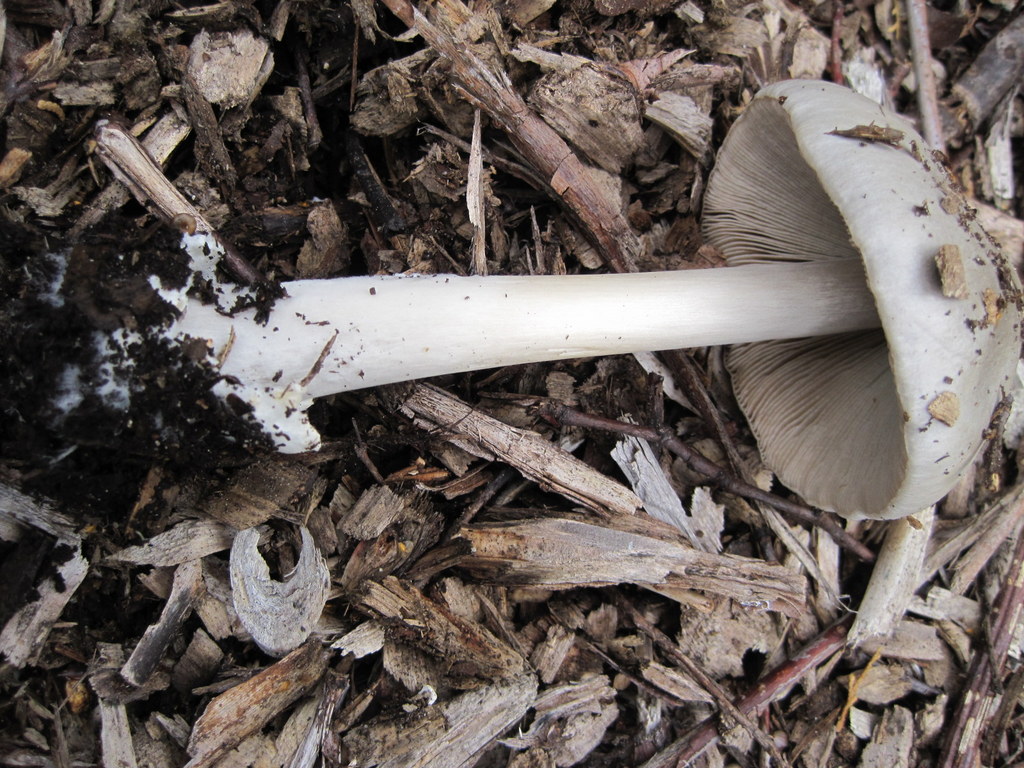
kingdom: Fungi
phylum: Basidiomycota
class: Agaricomycetes
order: Agaricales
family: Pluteaceae
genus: Volvopluteus
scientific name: Volvopluteus gloiocephalus
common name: høj posesvamp
